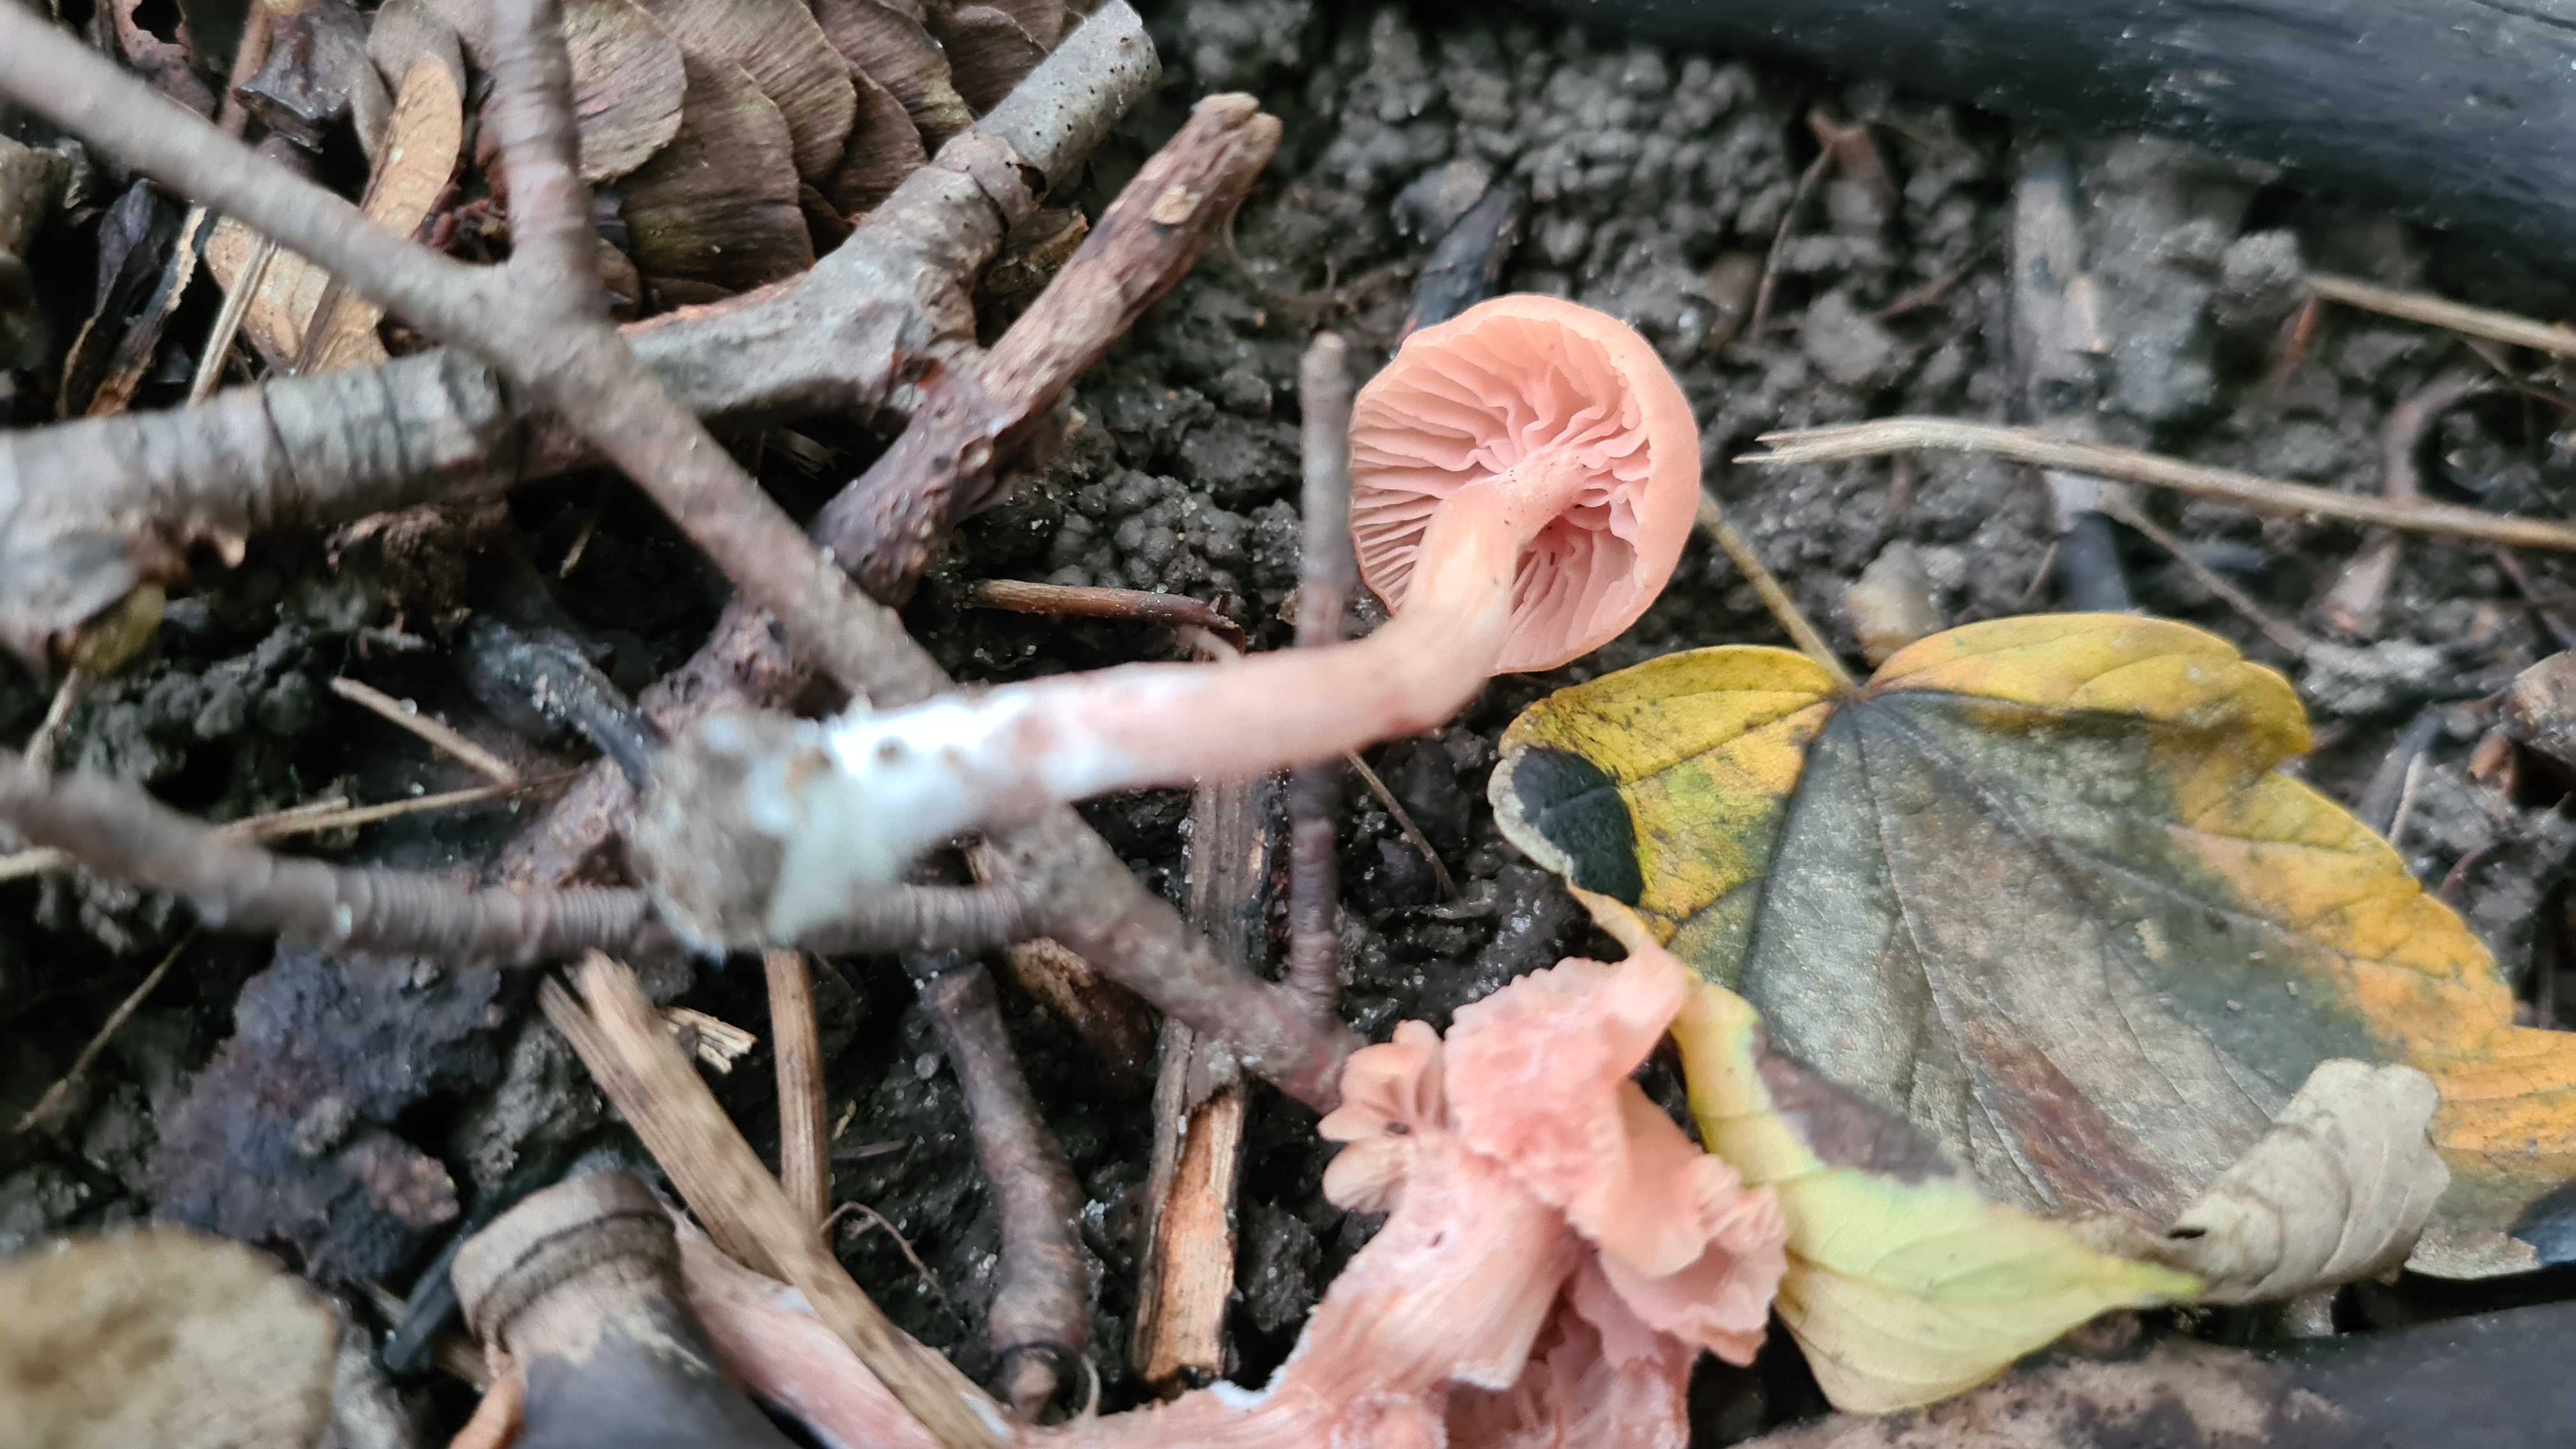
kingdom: Fungi
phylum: Basidiomycota
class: Agaricomycetes
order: Agaricales
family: Hydnangiaceae
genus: Laccaria
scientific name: Laccaria laccata
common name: rød ametysthat
